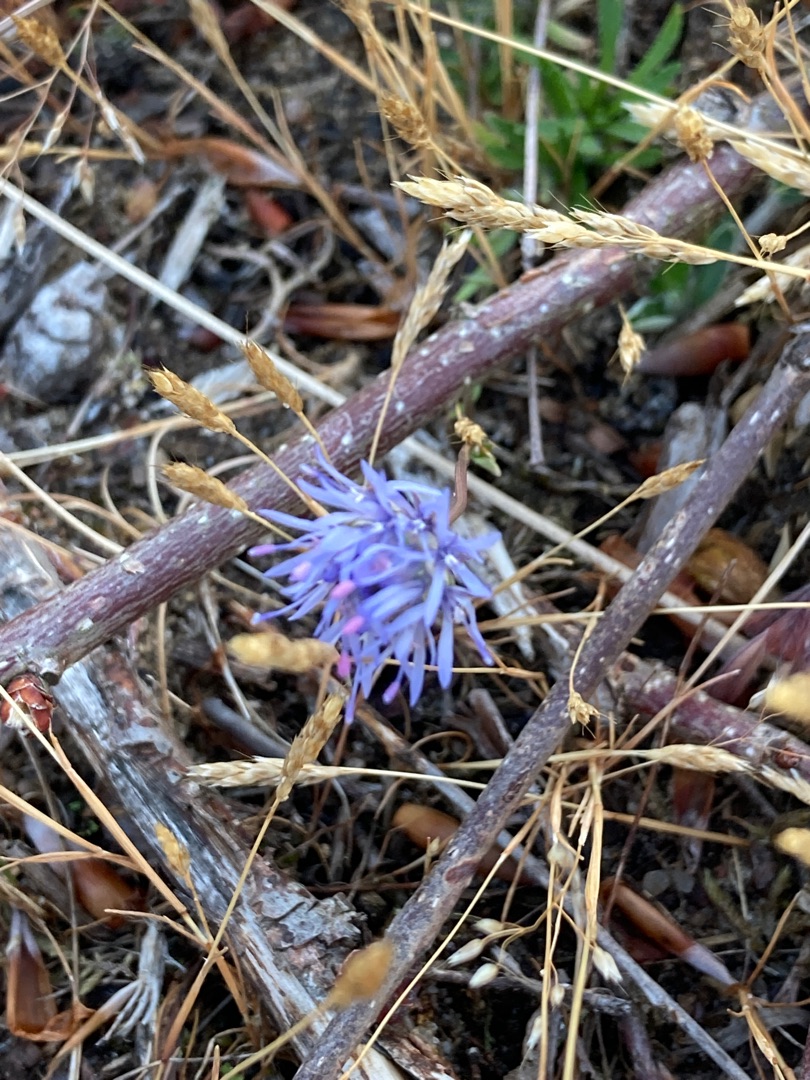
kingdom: Plantae
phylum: Tracheophyta
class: Magnoliopsida
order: Asterales
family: Campanulaceae
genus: Jasione
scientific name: Jasione montana
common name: Blåmunke
